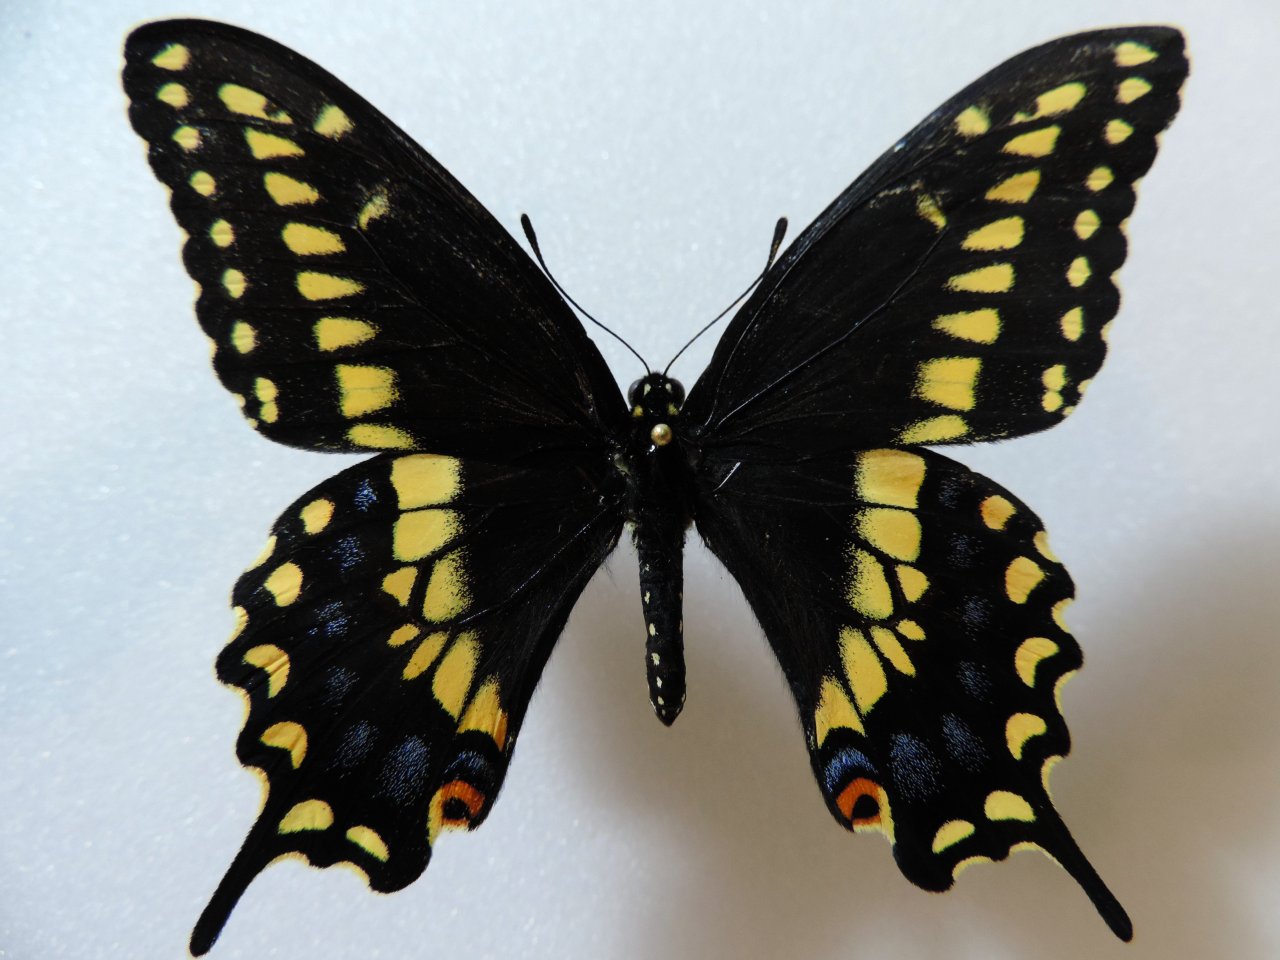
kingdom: Animalia
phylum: Arthropoda
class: Insecta
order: Lepidoptera
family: Papilionidae
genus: Papilio
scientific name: Papilio polyxenes
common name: Black Swallowtail
